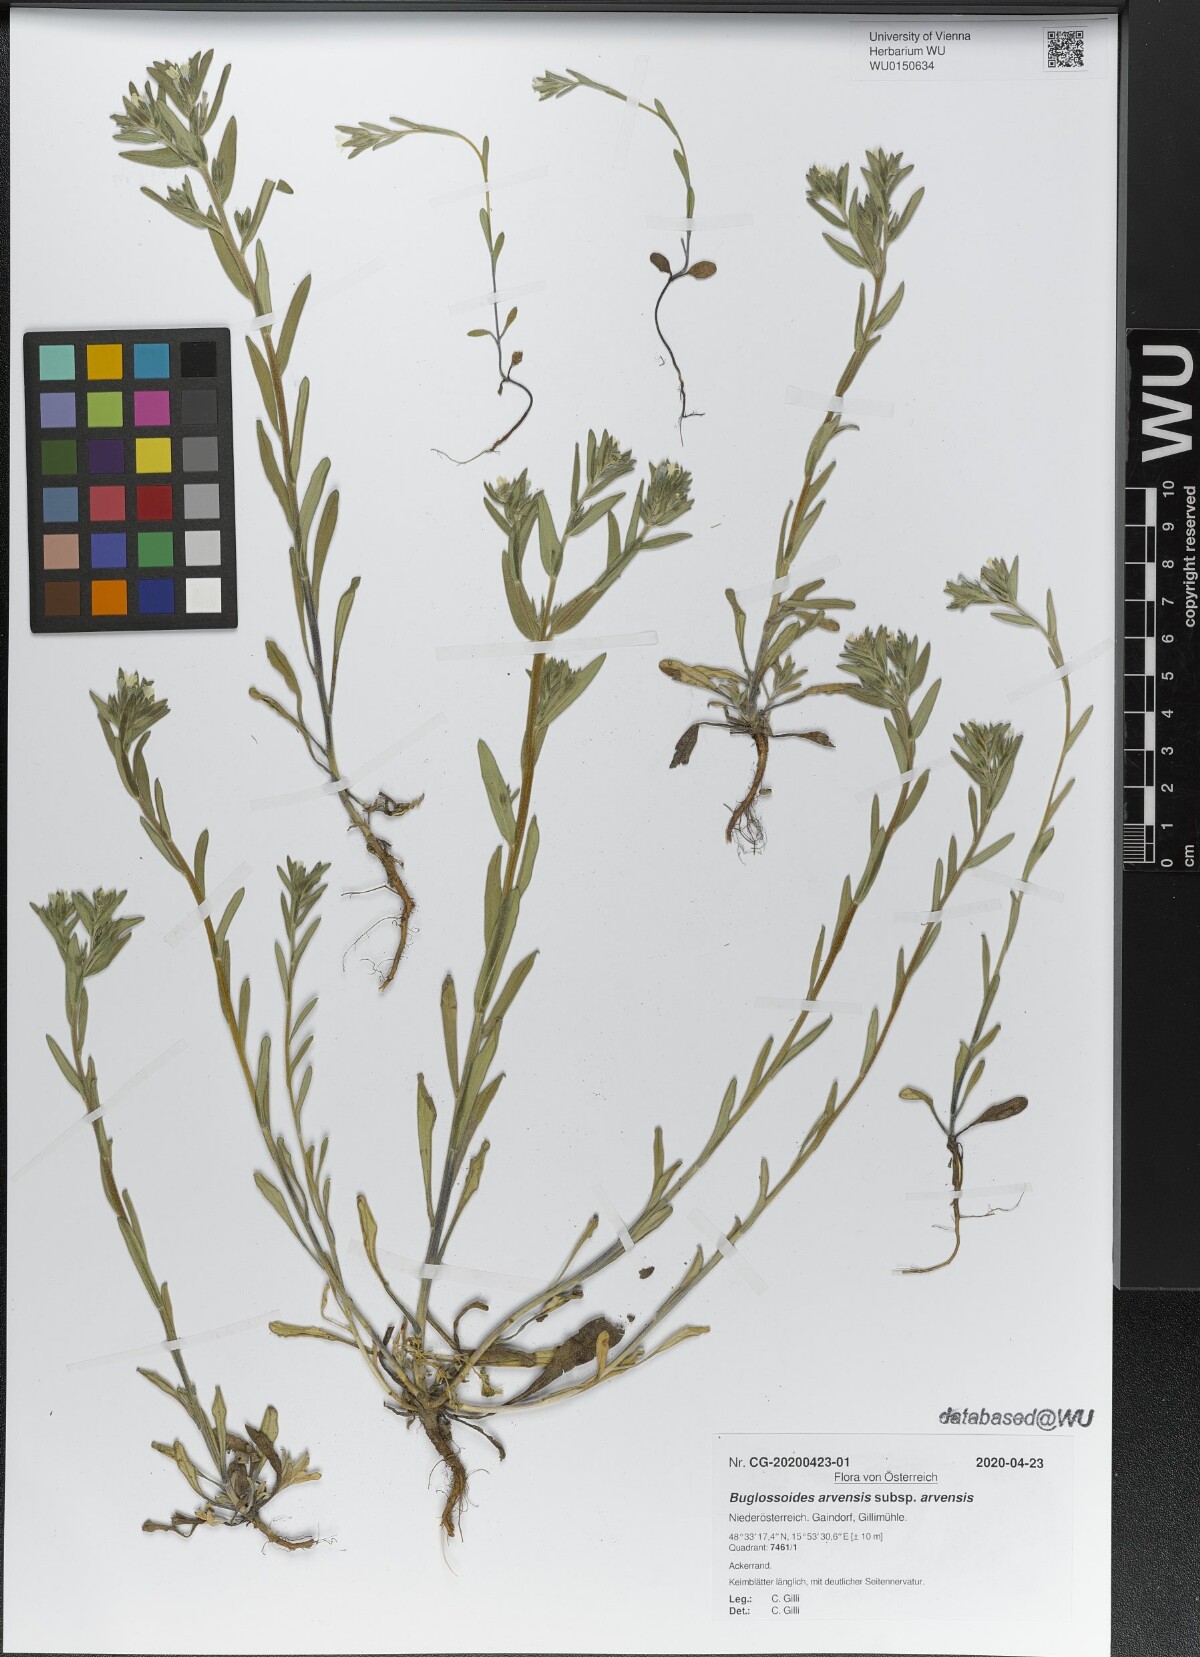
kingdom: Plantae
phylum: Tracheophyta
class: Magnoliopsida
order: Boraginales
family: Boraginaceae
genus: Buglossoides
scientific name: Buglossoides arvensis
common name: Corn gromwell
